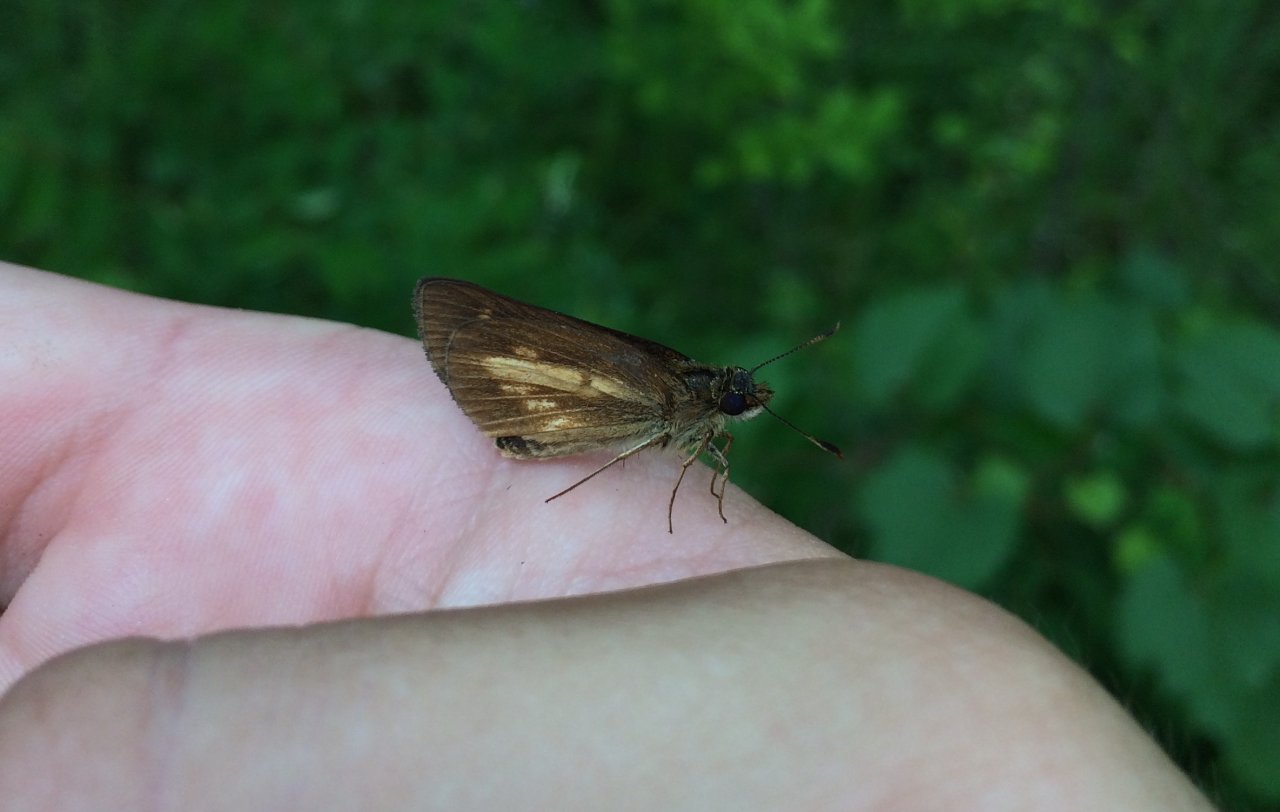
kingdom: Animalia
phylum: Arthropoda
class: Insecta
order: Lepidoptera
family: Hesperiidae
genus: Poanes
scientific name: Poanes viator
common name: Broad-winged Skipper
